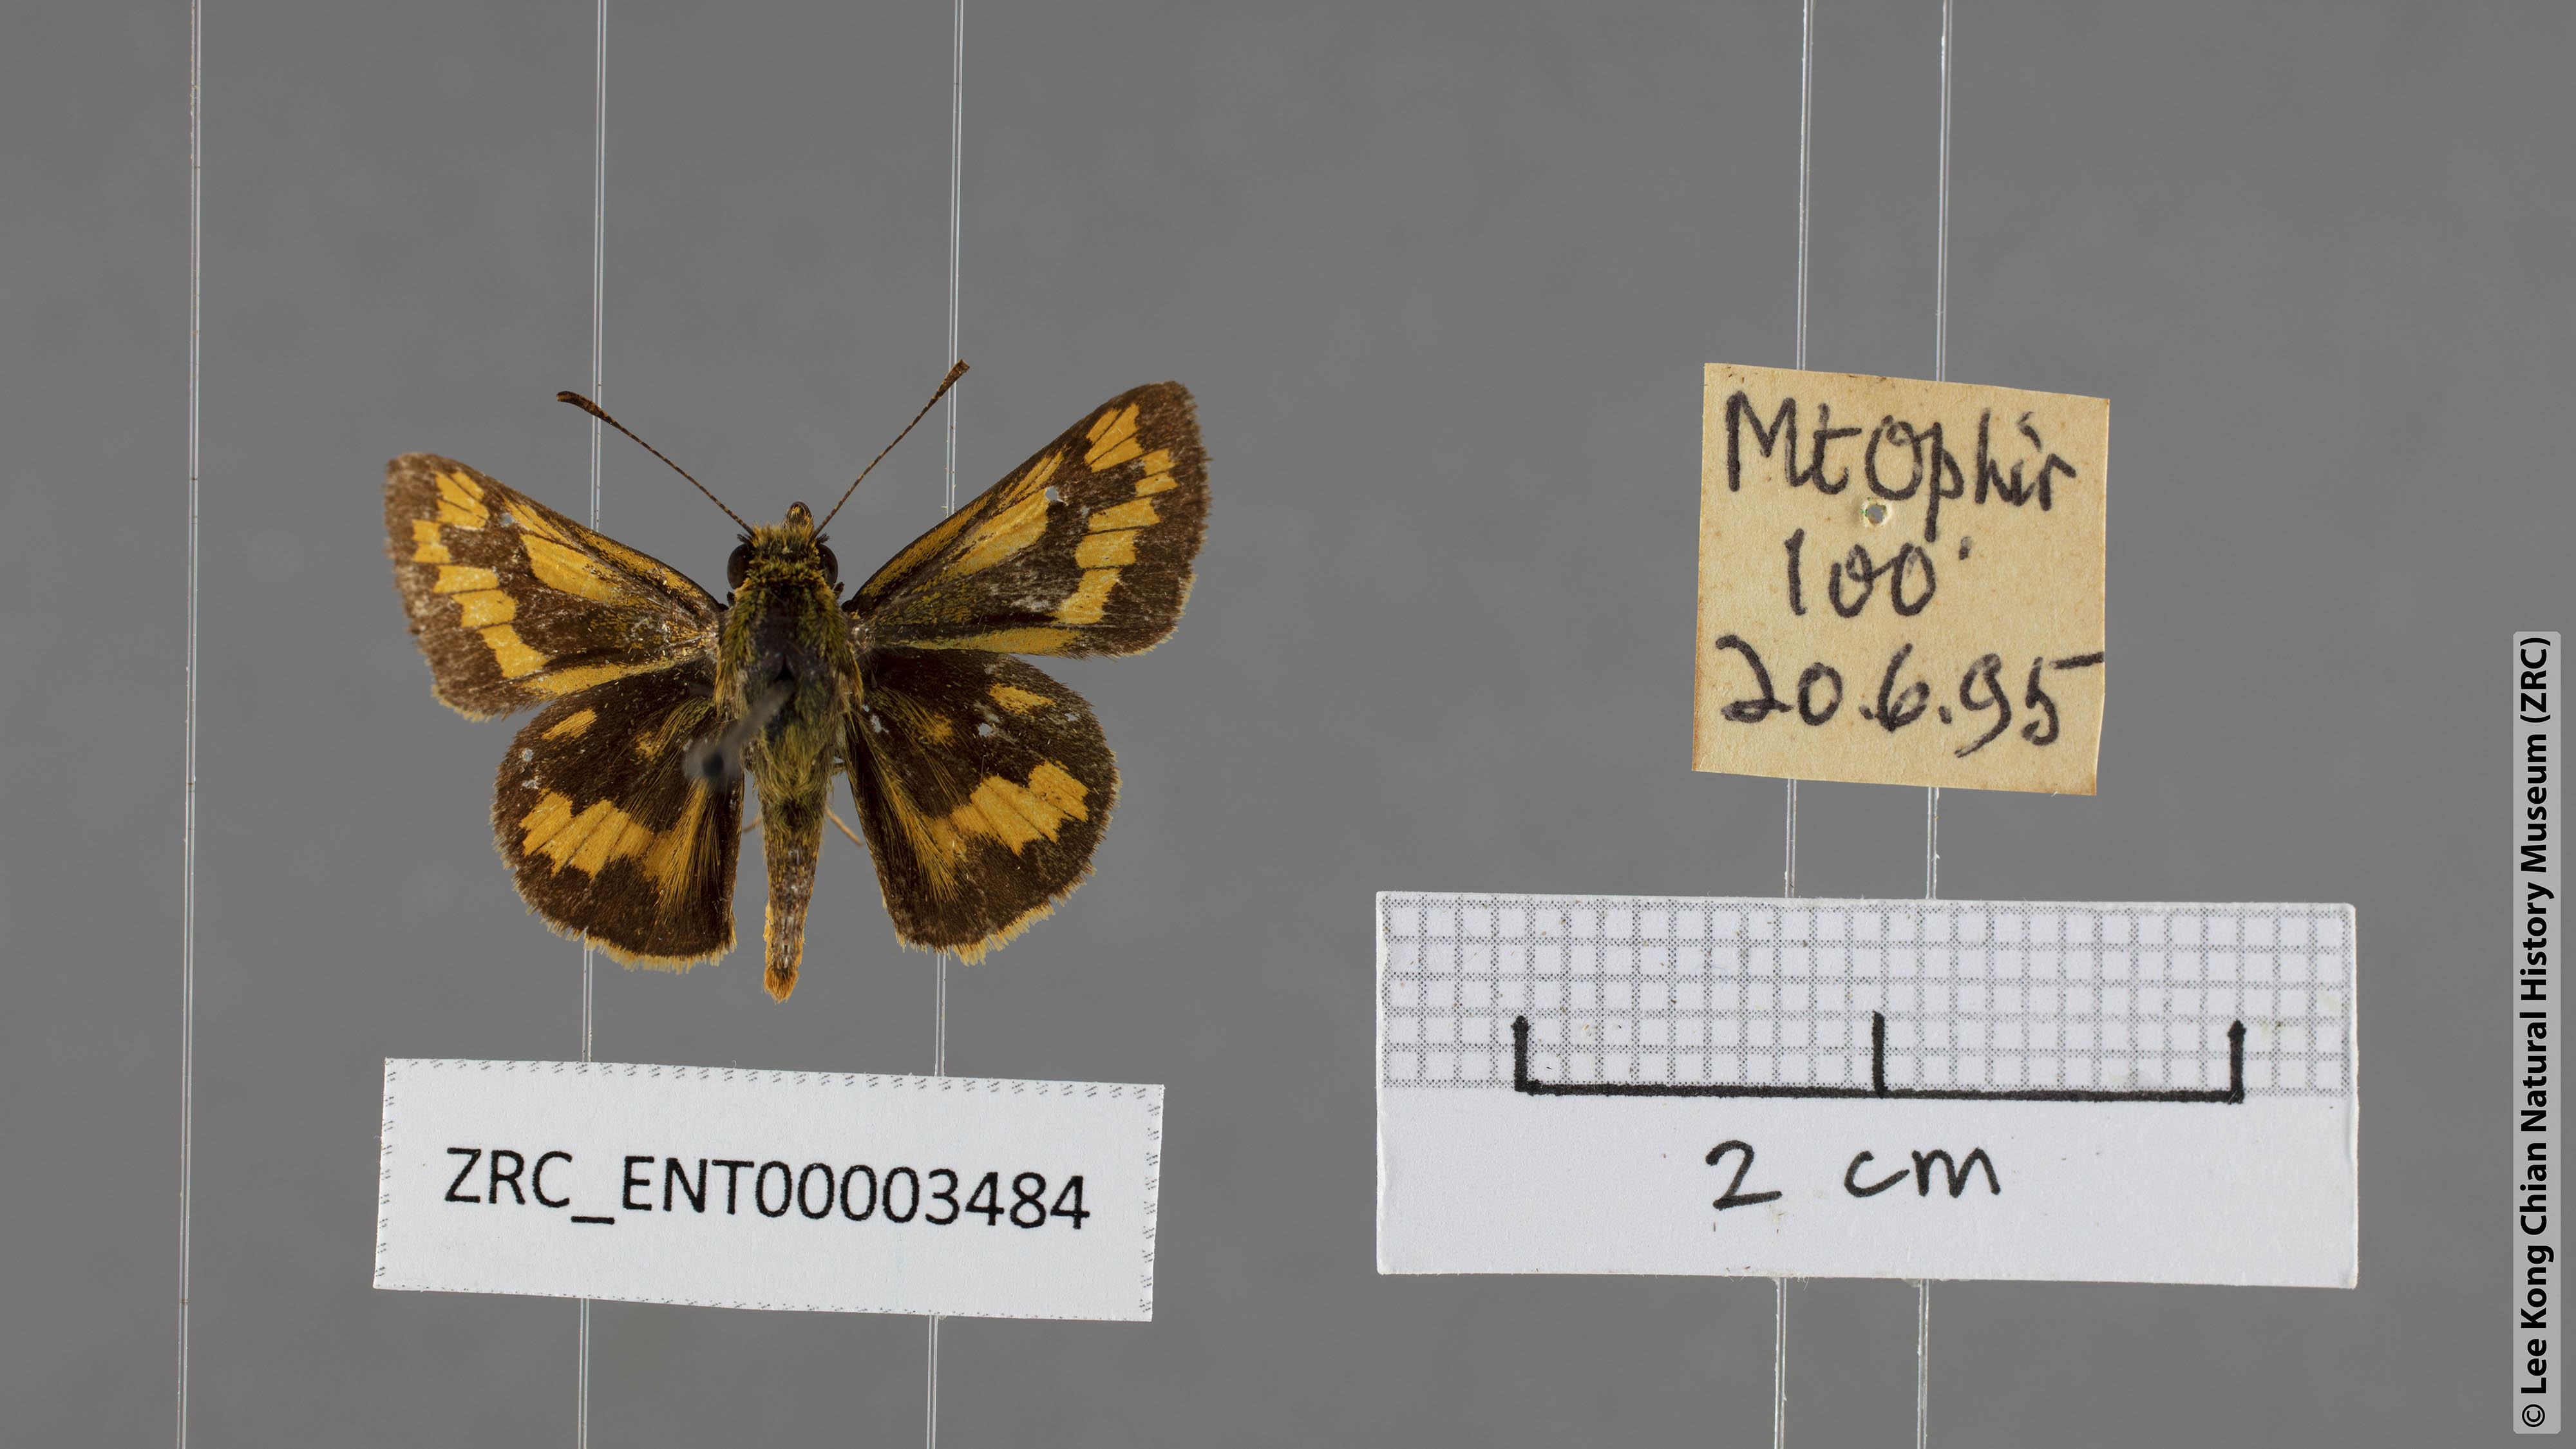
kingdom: Animalia
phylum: Arthropoda
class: Insecta
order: Lepidoptera
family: Hesperiidae
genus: Potanthus
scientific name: Potanthus omaha
